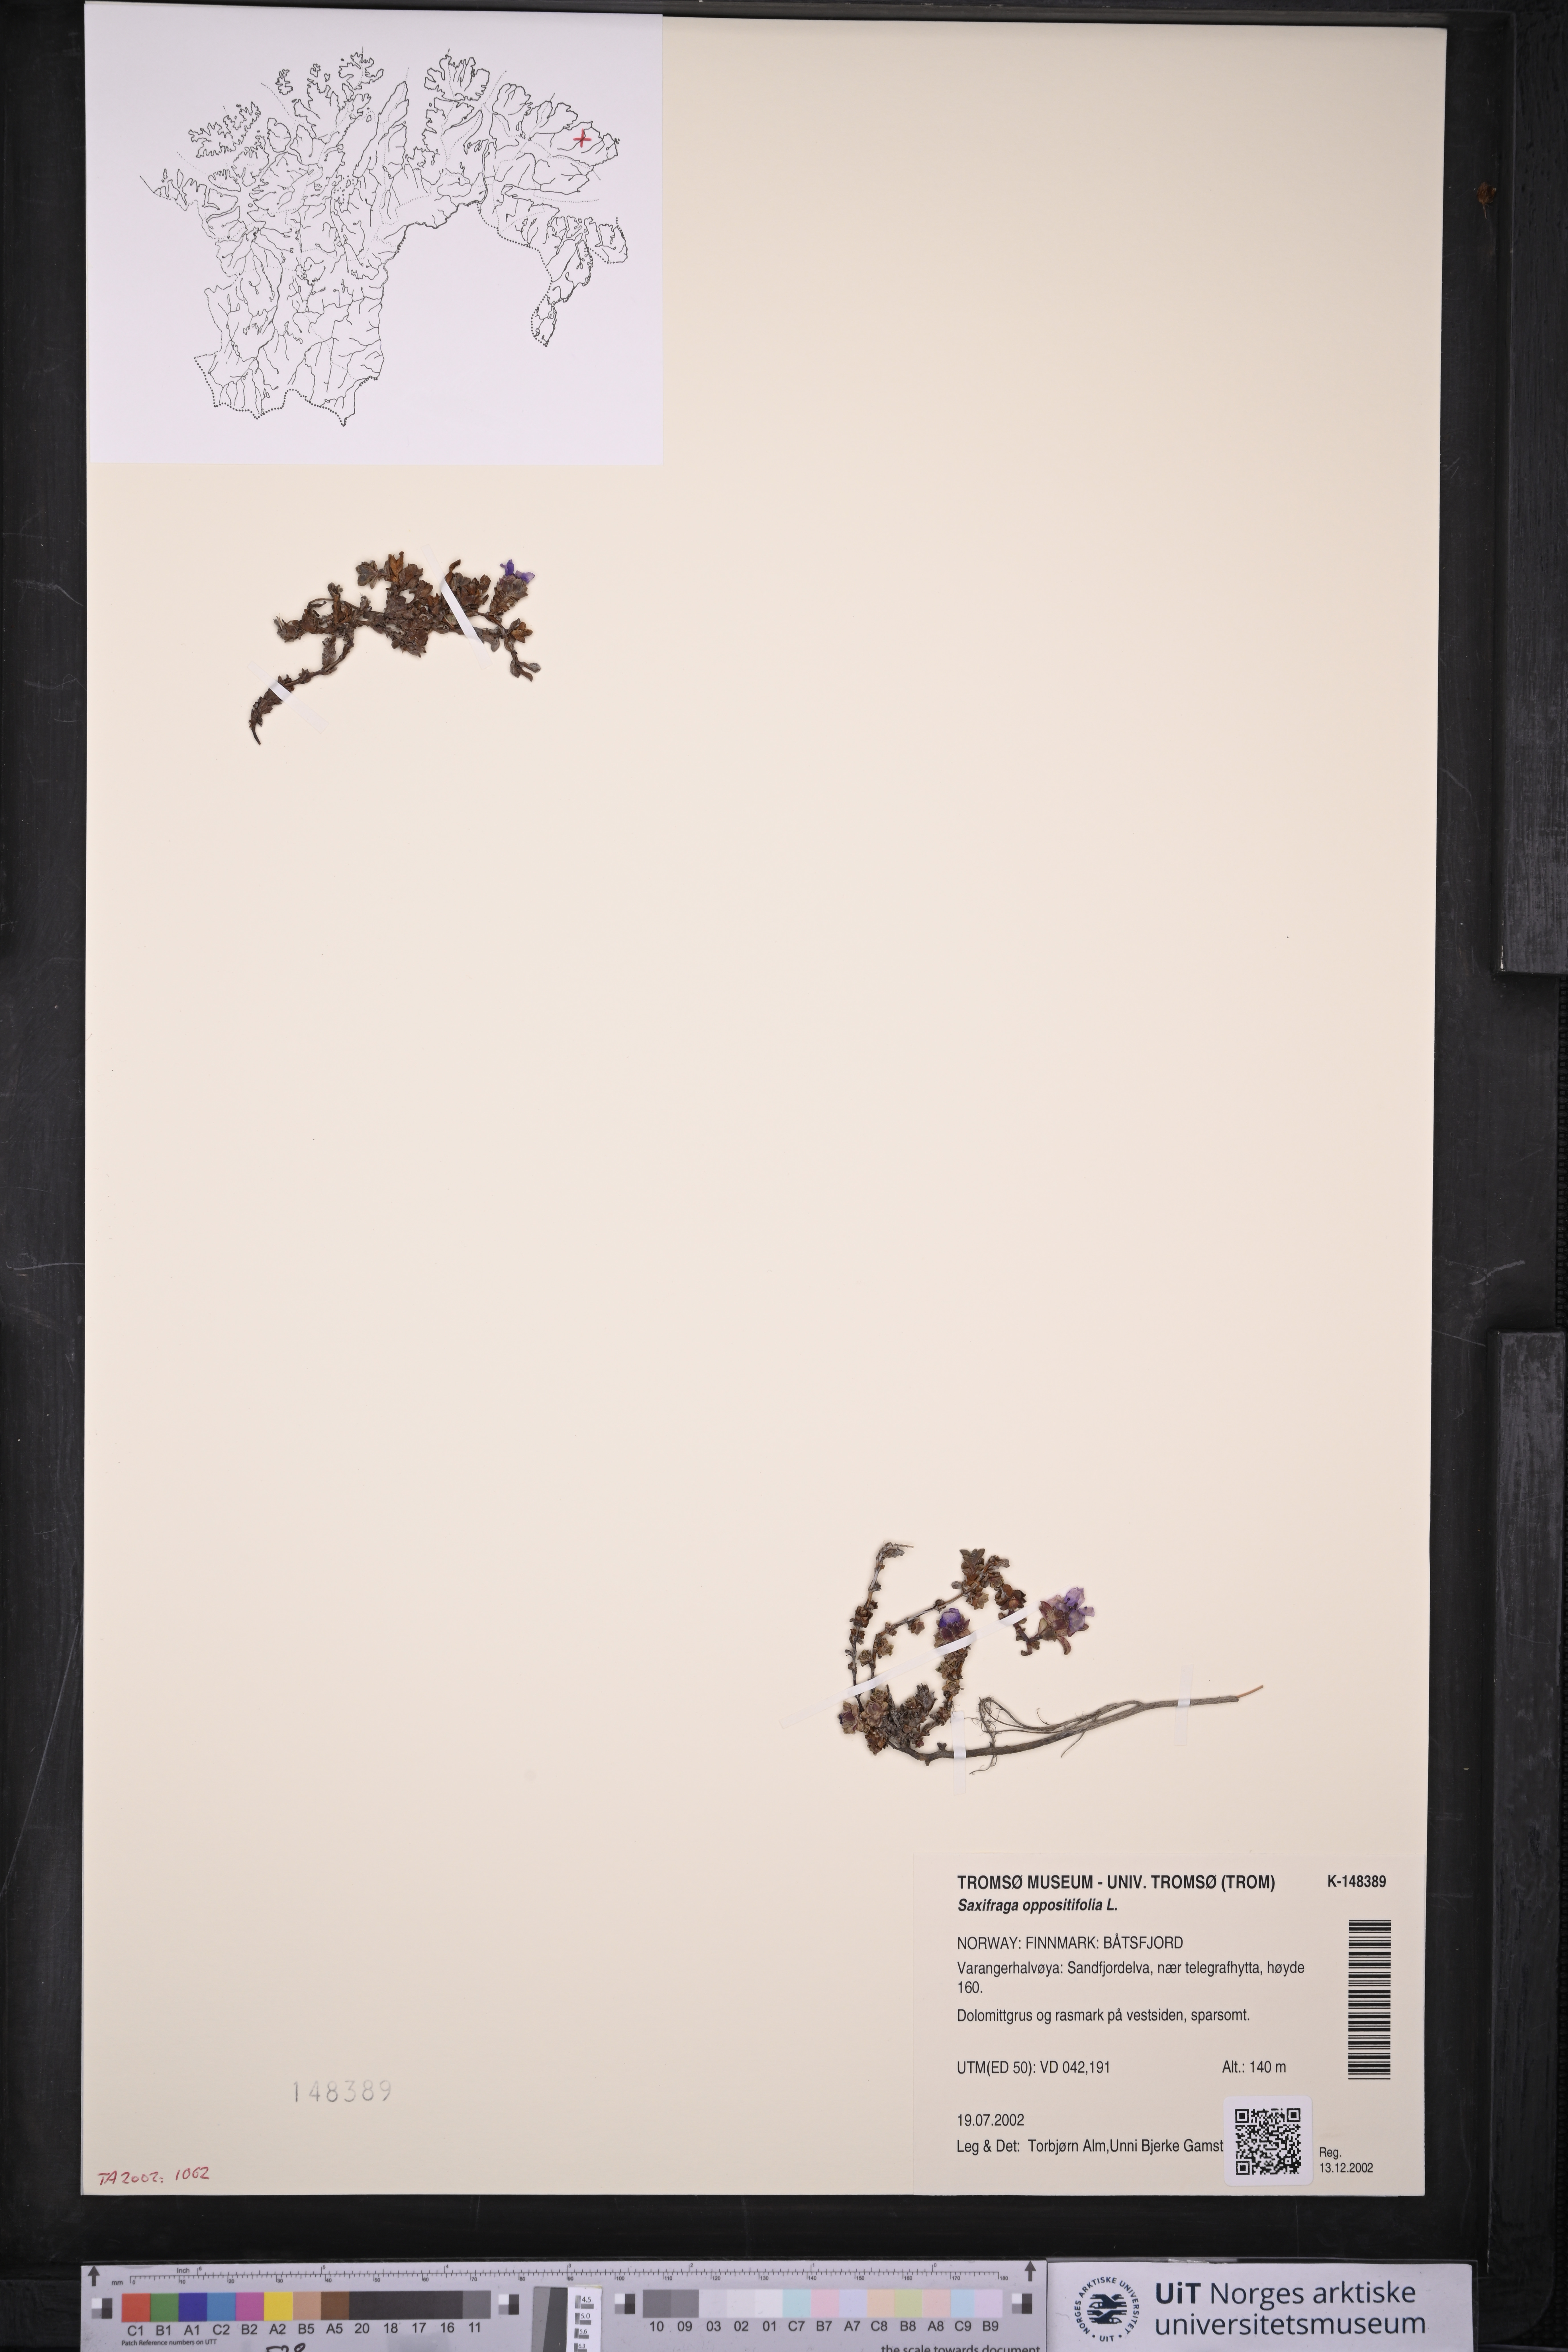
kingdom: Plantae
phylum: Tracheophyta
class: Magnoliopsida
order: Saxifragales
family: Saxifragaceae
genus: Saxifraga
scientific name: Saxifraga oppositifolia
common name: Purple saxifrage
